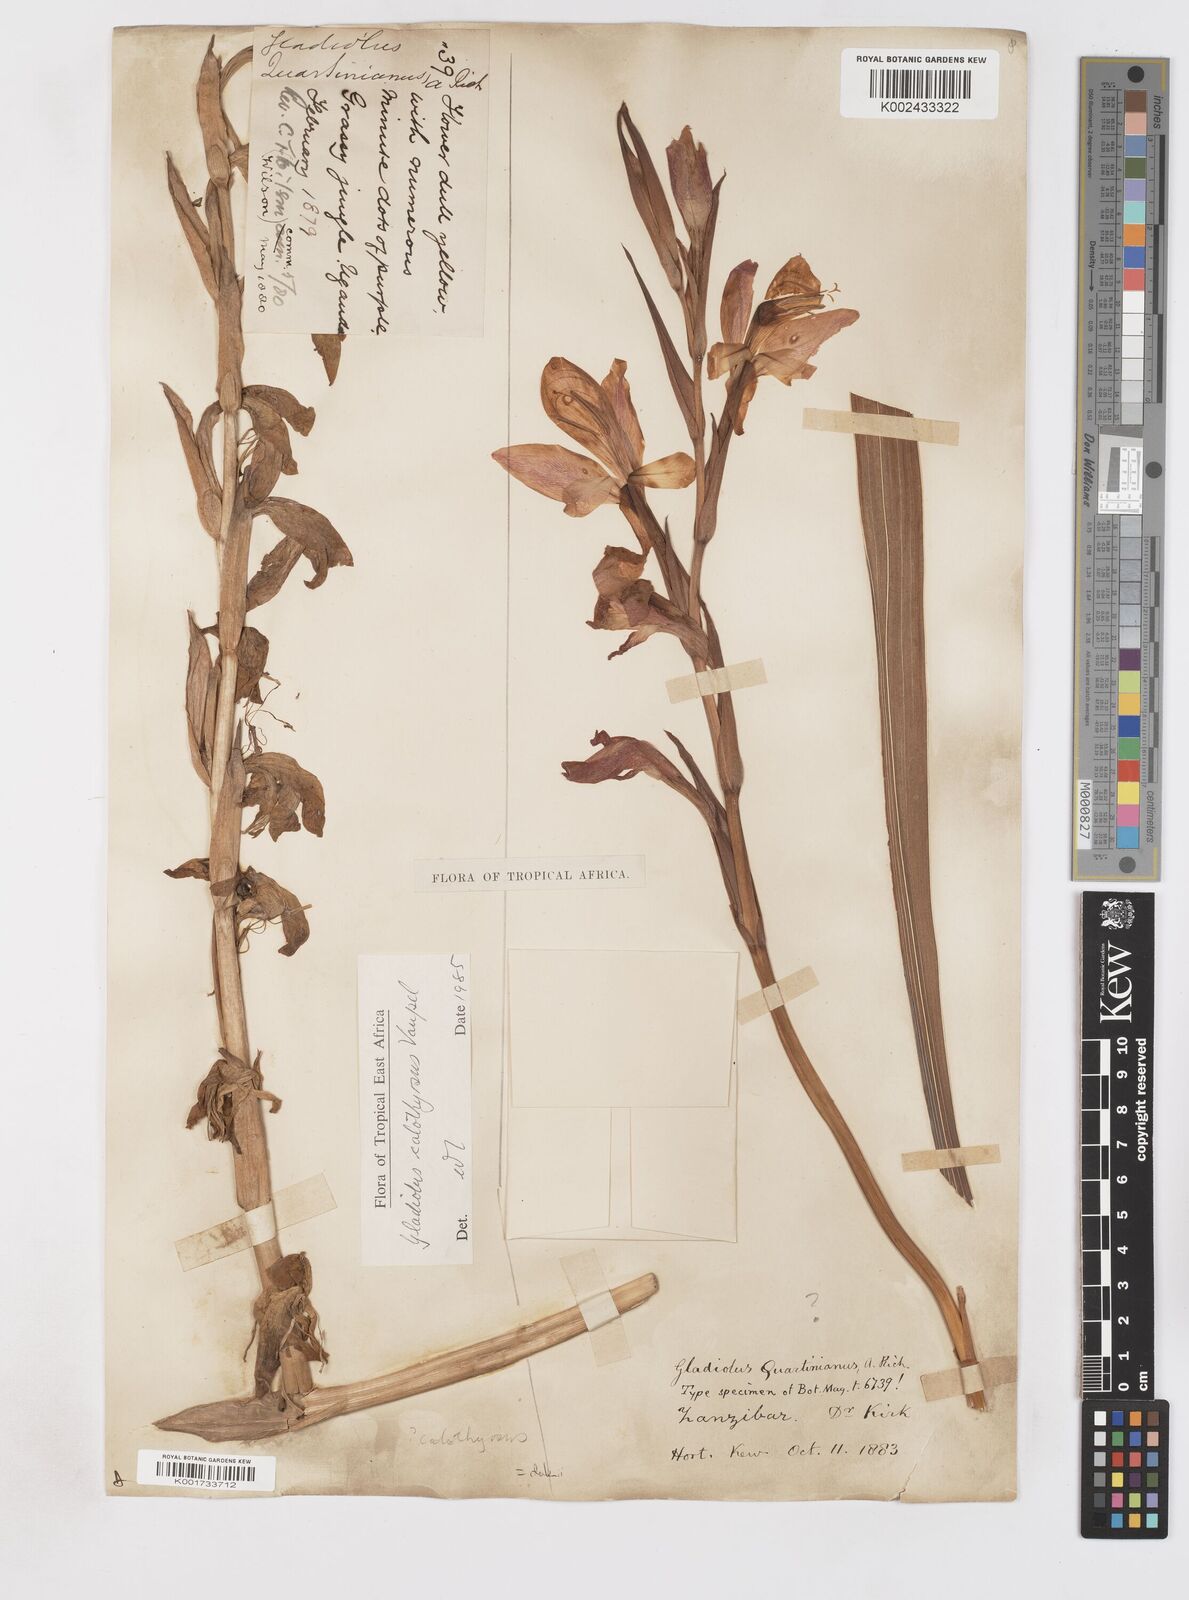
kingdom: Plantae
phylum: Tracheophyta
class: Liliopsida
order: Asparagales
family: Iridaceae
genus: Gladiolus
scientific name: Gladiolus dalenii
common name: Cornflag
